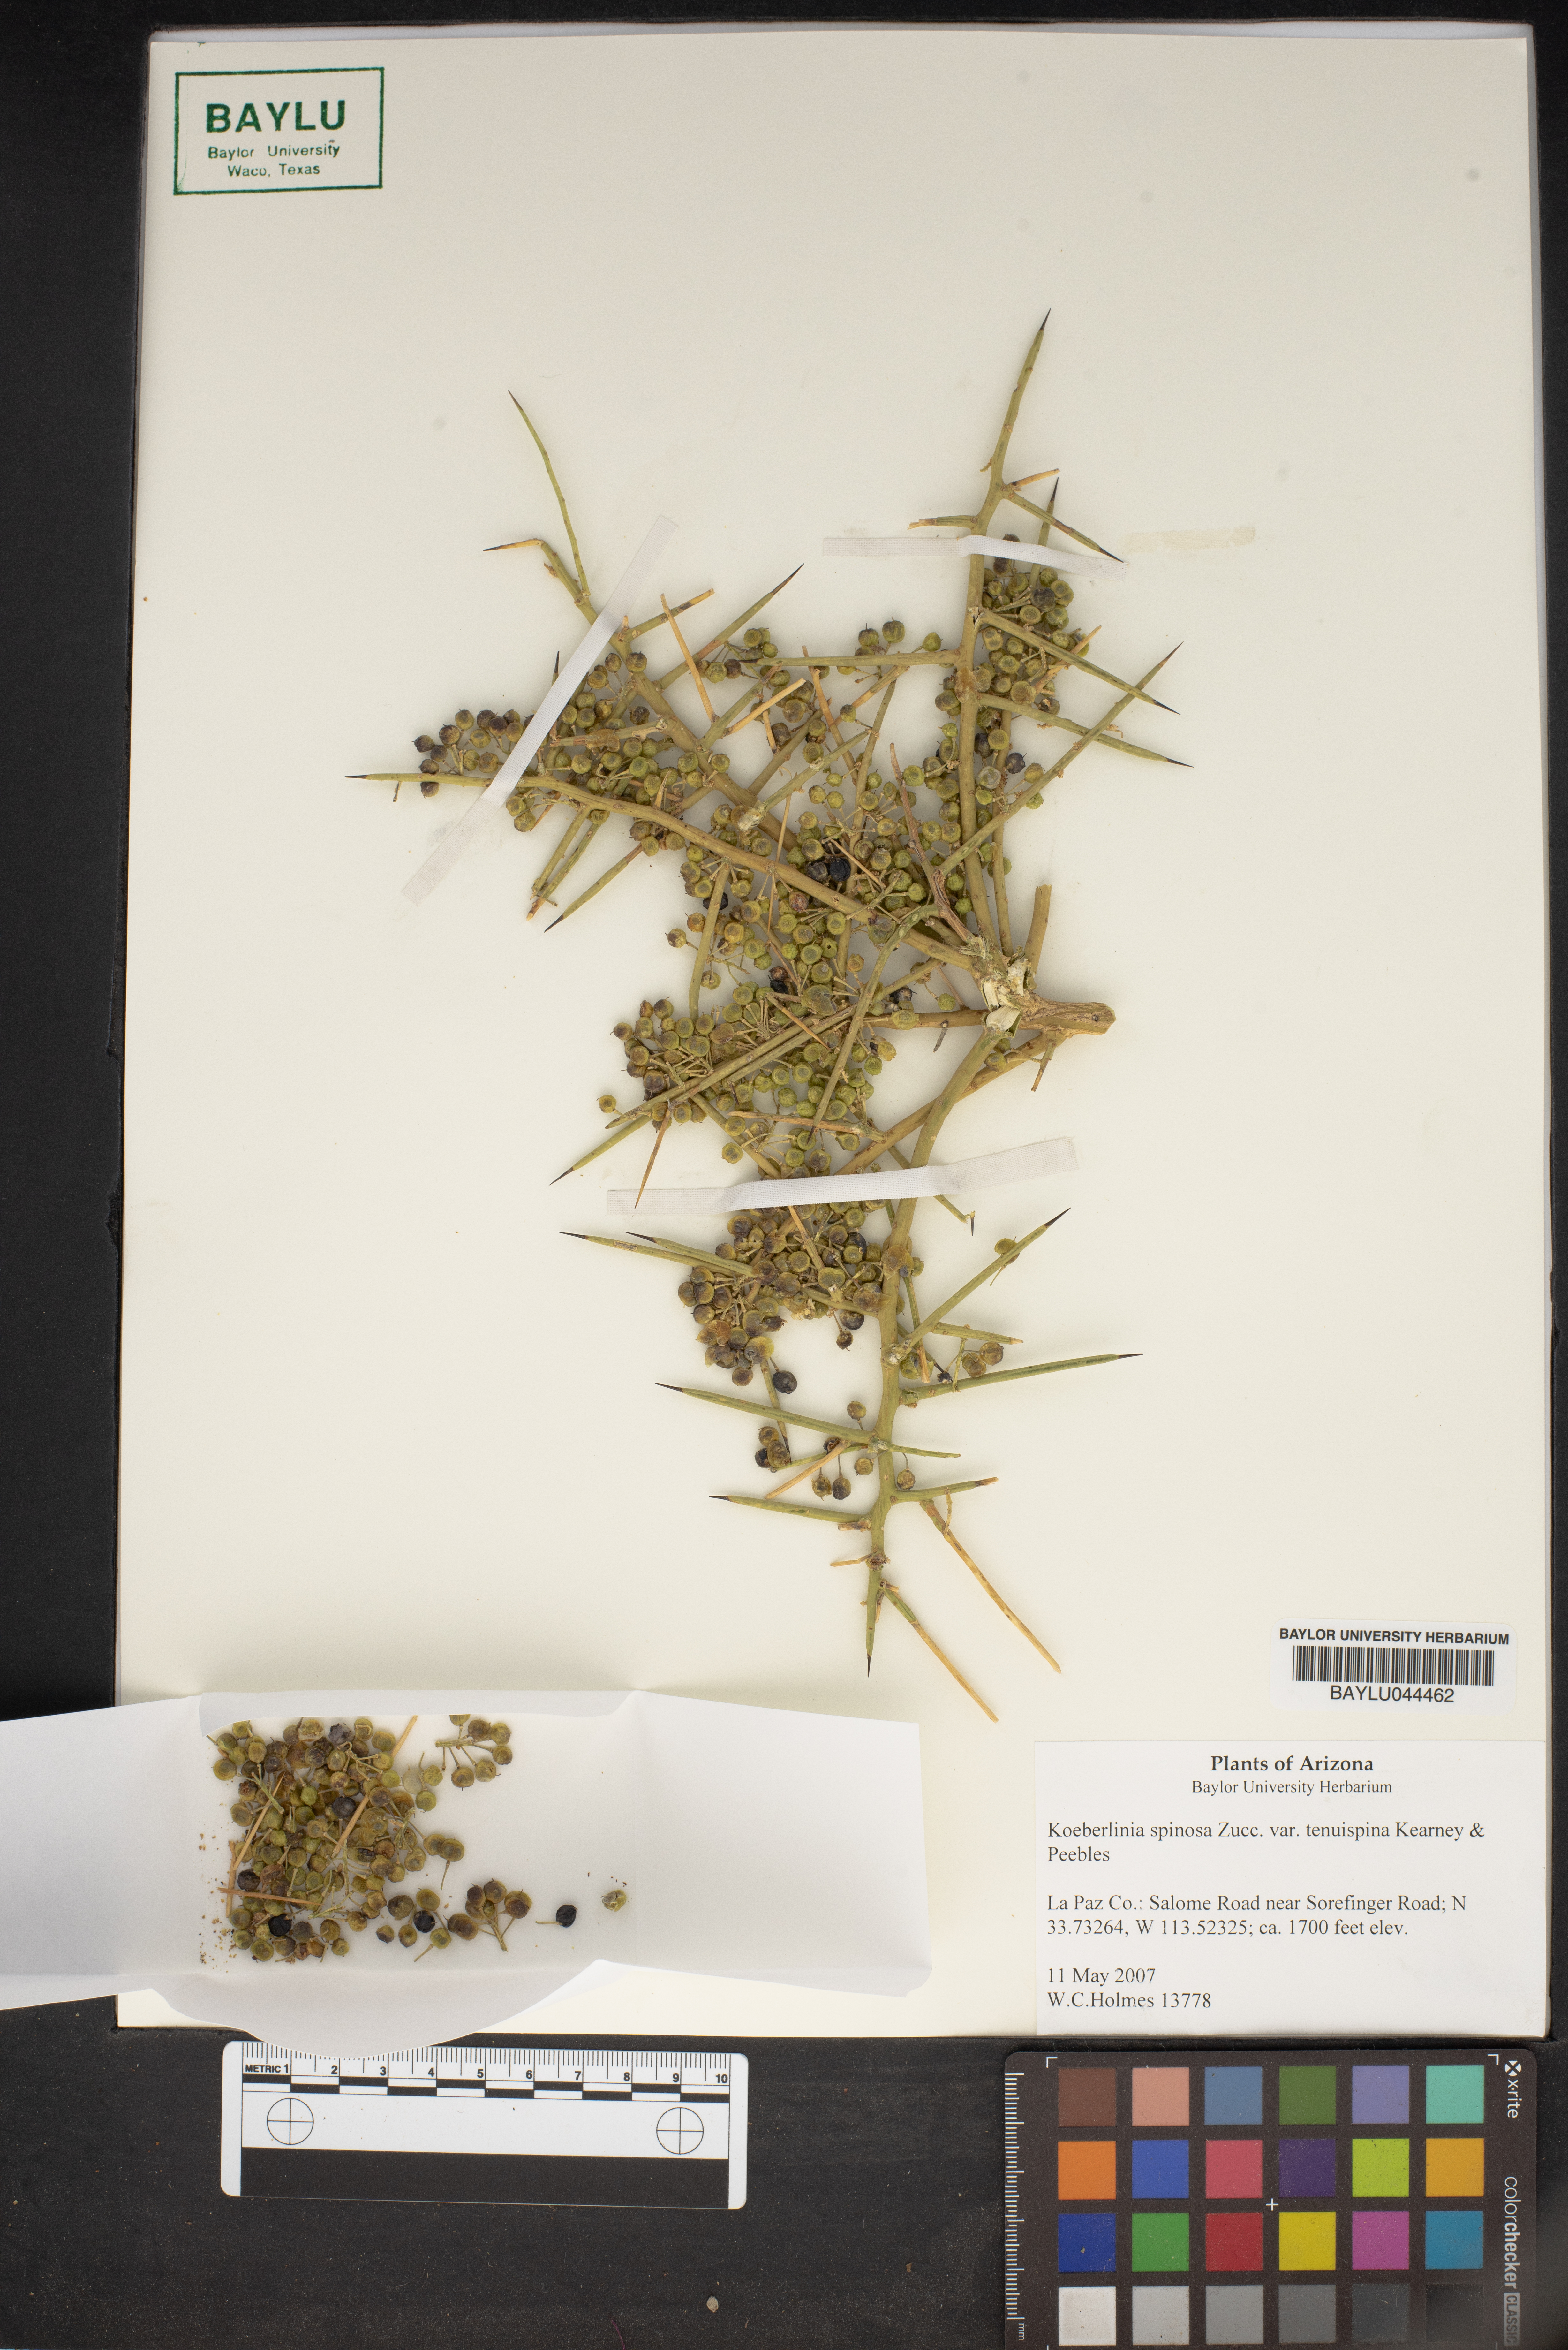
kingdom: Plantae
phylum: Tracheophyta
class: Magnoliopsida
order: Brassicales
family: Koeberliniaceae
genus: Koeberlinia
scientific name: Koeberlinia spinosa
